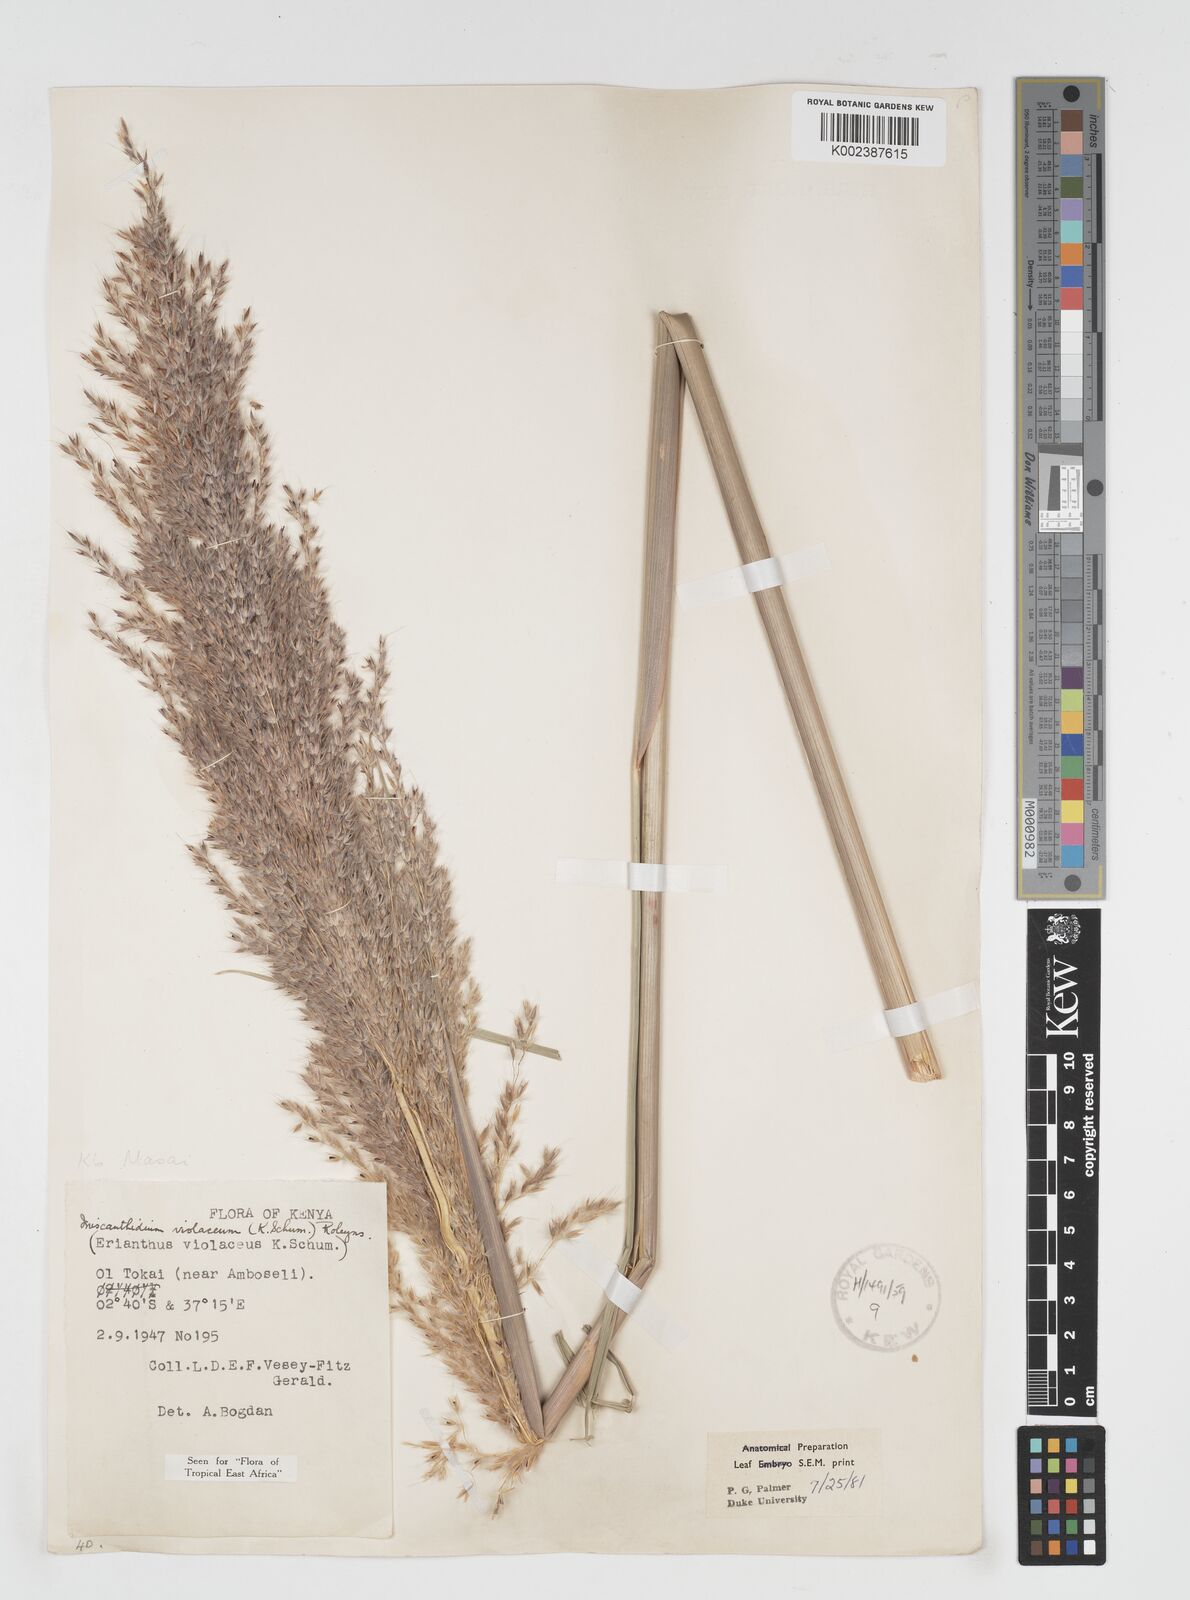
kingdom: Plantae
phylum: Tracheophyta
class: Liliopsida
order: Poales
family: Poaceae
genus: Miscanthidium
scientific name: Miscanthidium violaceum
